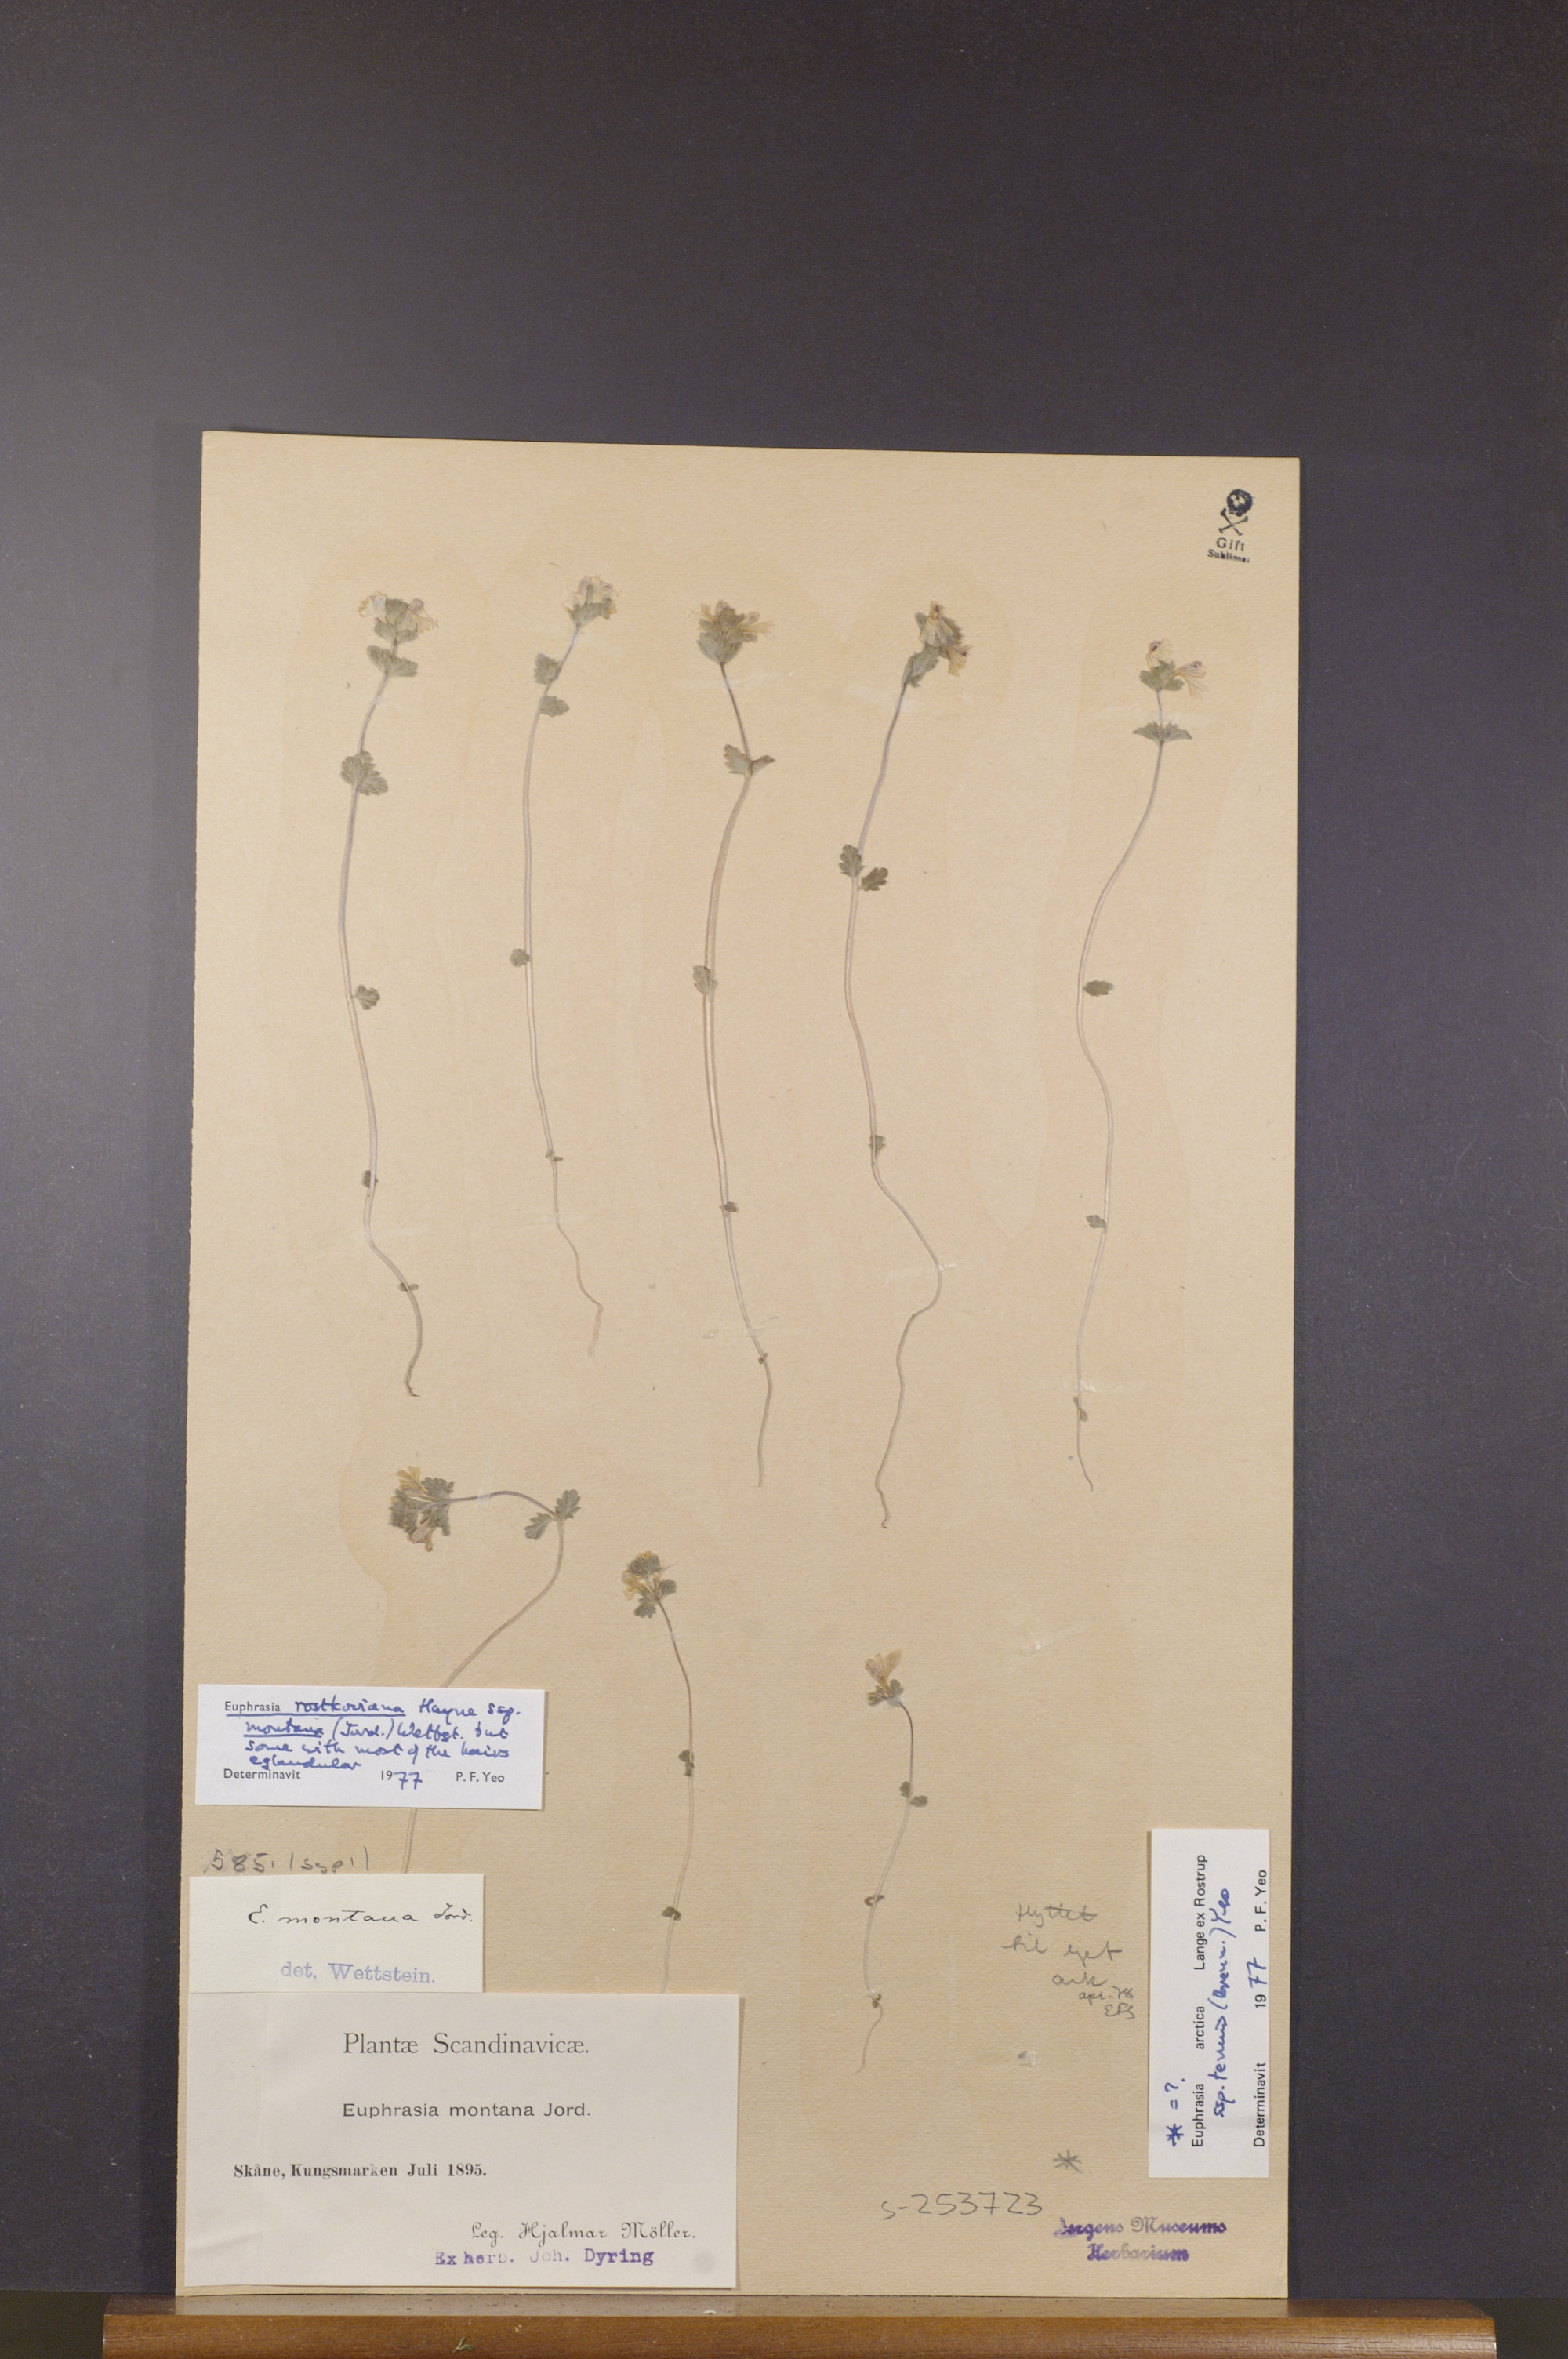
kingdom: Plantae
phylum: Tracheophyta
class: Magnoliopsida
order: Lamiales
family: Orobanchaceae
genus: Euphrasia
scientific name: Euphrasia officinalis
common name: Eyebright
